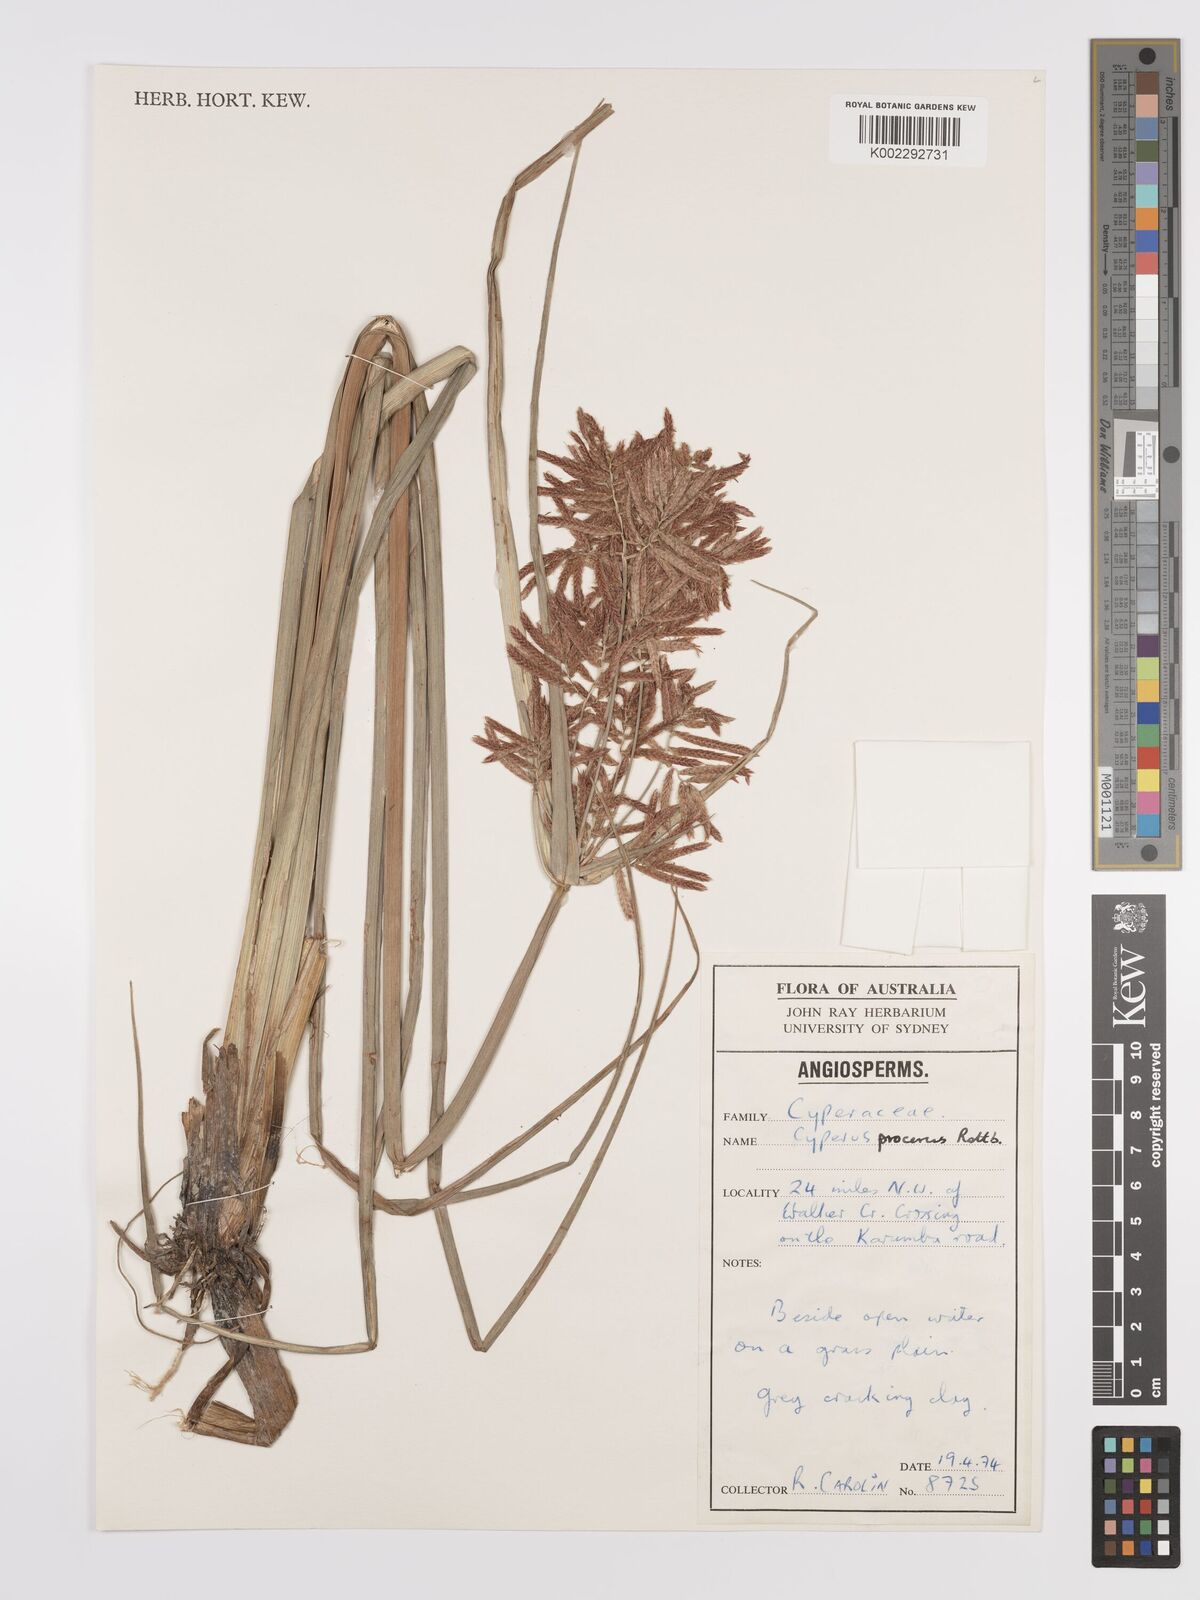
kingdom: Plantae
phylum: Tracheophyta
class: Liliopsida
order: Poales
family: Cyperaceae
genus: Cyperus
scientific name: Cyperus procerus
